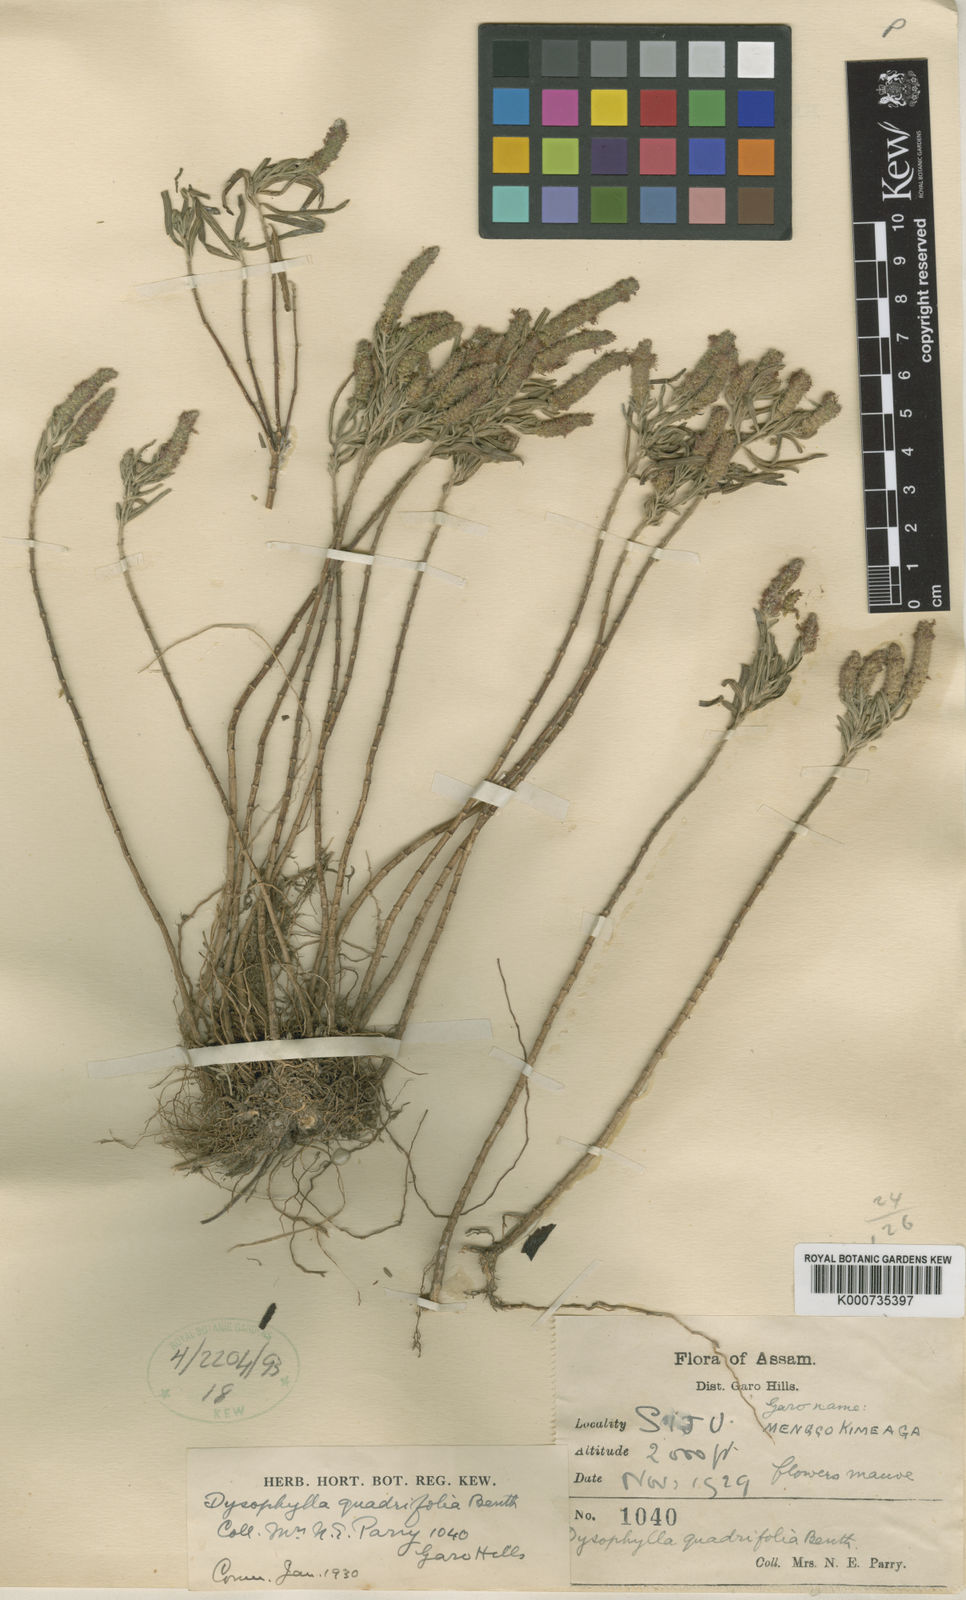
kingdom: Plantae
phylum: Tracheophyta
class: Magnoliopsida
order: Lamiales
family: Lamiaceae
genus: Pogostemon
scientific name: Pogostemon quadrifolius
